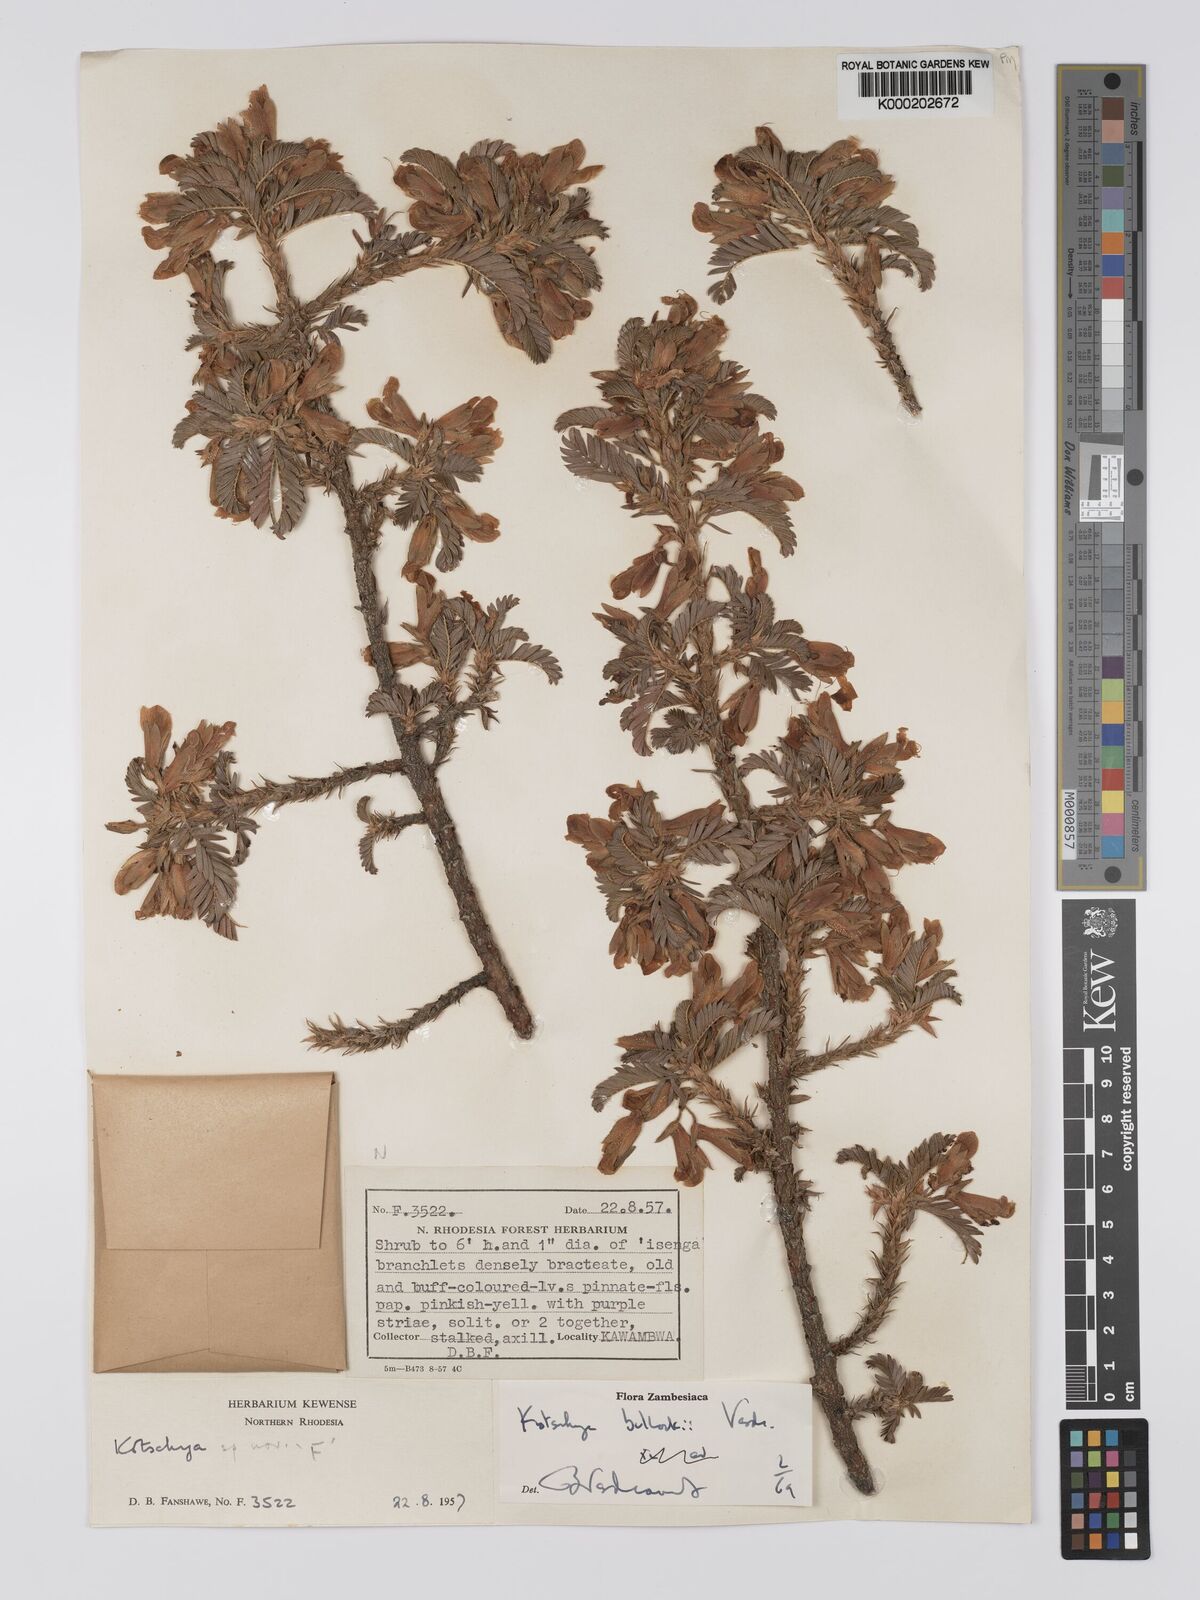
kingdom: Plantae
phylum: Tracheophyta
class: Magnoliopsida
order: Fabales
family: Fabaceae
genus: Kotschya
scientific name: Kotschya bullockii
